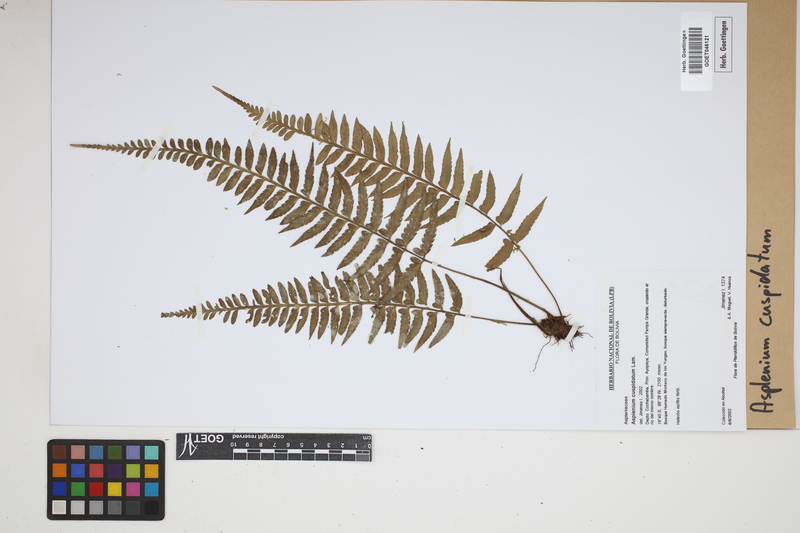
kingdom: Plantae
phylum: Tracheophyta
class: Polypodiopsida
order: Polypodiales
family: Aspleniaceae
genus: Asplenium
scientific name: Asplenium cuspidatum
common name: Eared spleenwort
